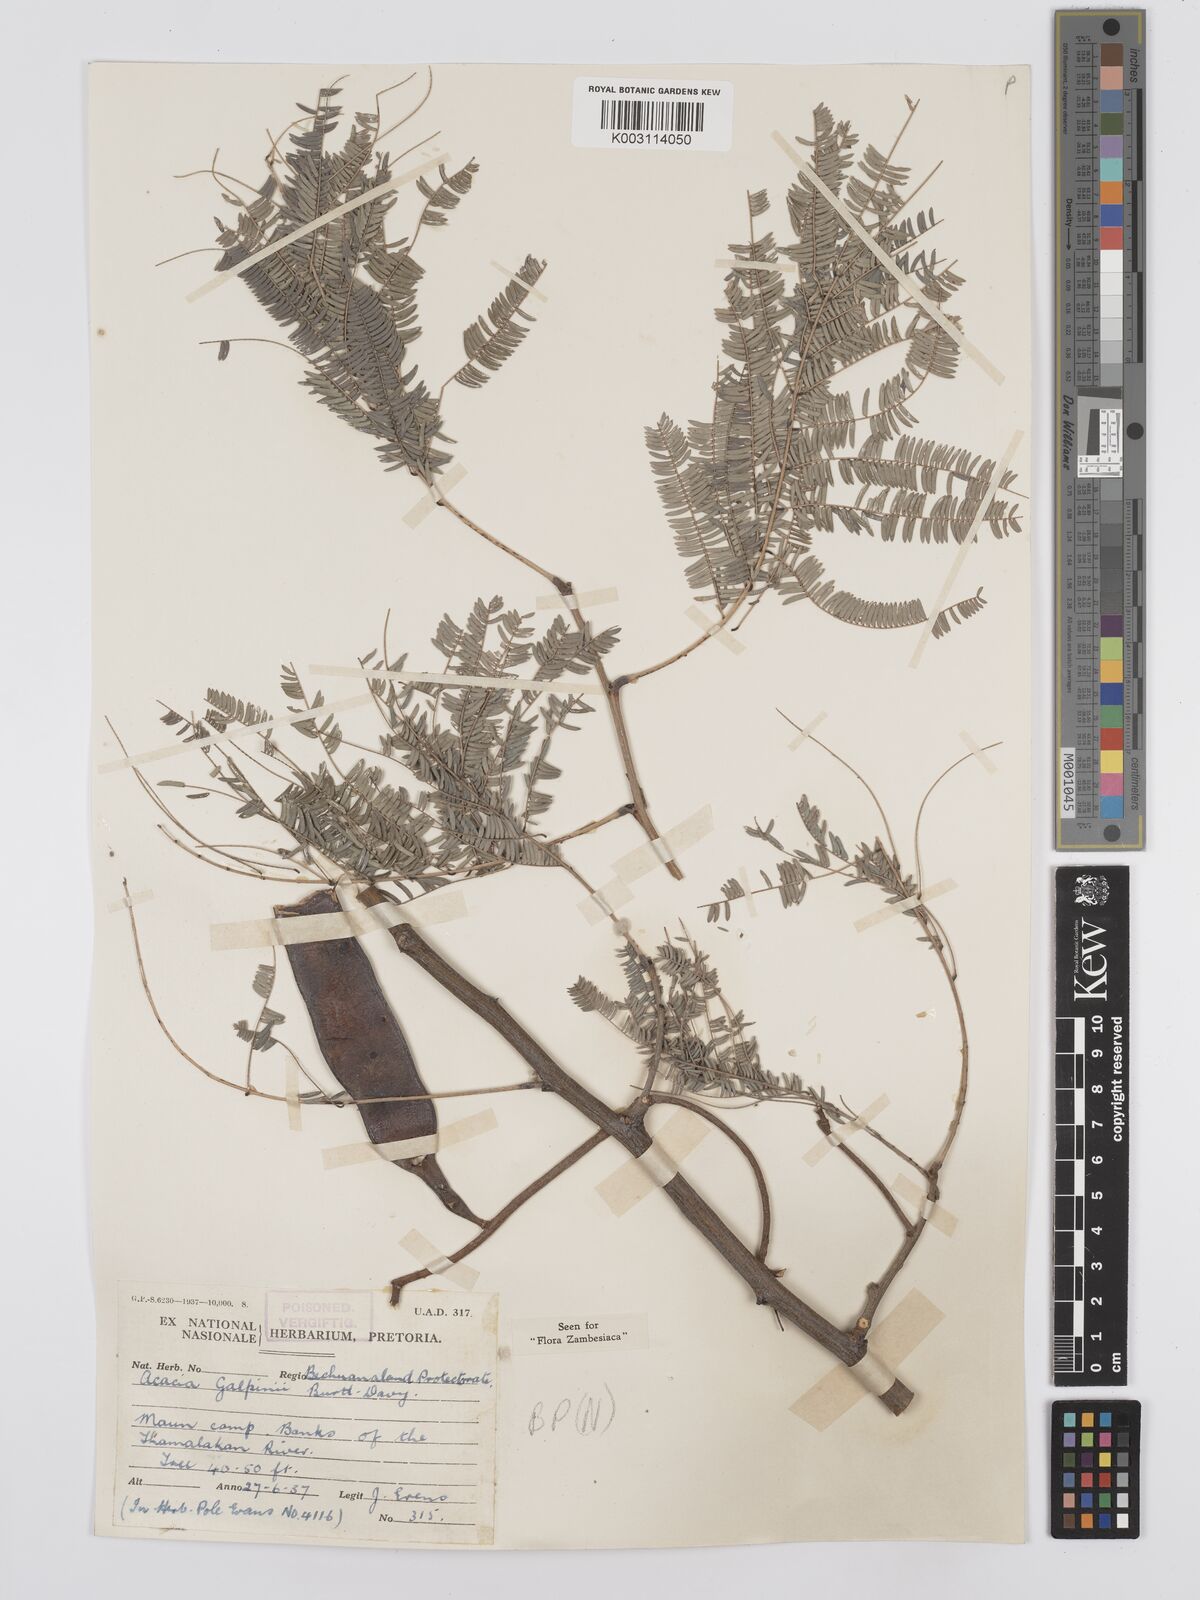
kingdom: Plantae
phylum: Tracheophyta
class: Magnoliopsida
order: Fabales
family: Fabaceae
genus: Senegalia
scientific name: Senegalia galpinii
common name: Monkey-thorn
